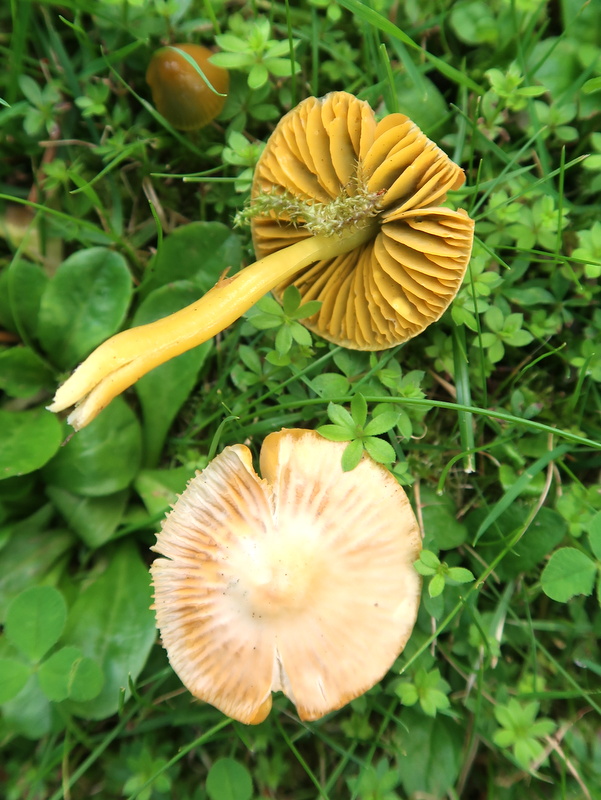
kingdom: Fungi
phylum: Basidiomycota
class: Agaricomycetes
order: Agaricales
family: Hygrophoraceae
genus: Gliophorus
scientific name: Gliophorus psittacinus
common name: papegøje-vokshat
